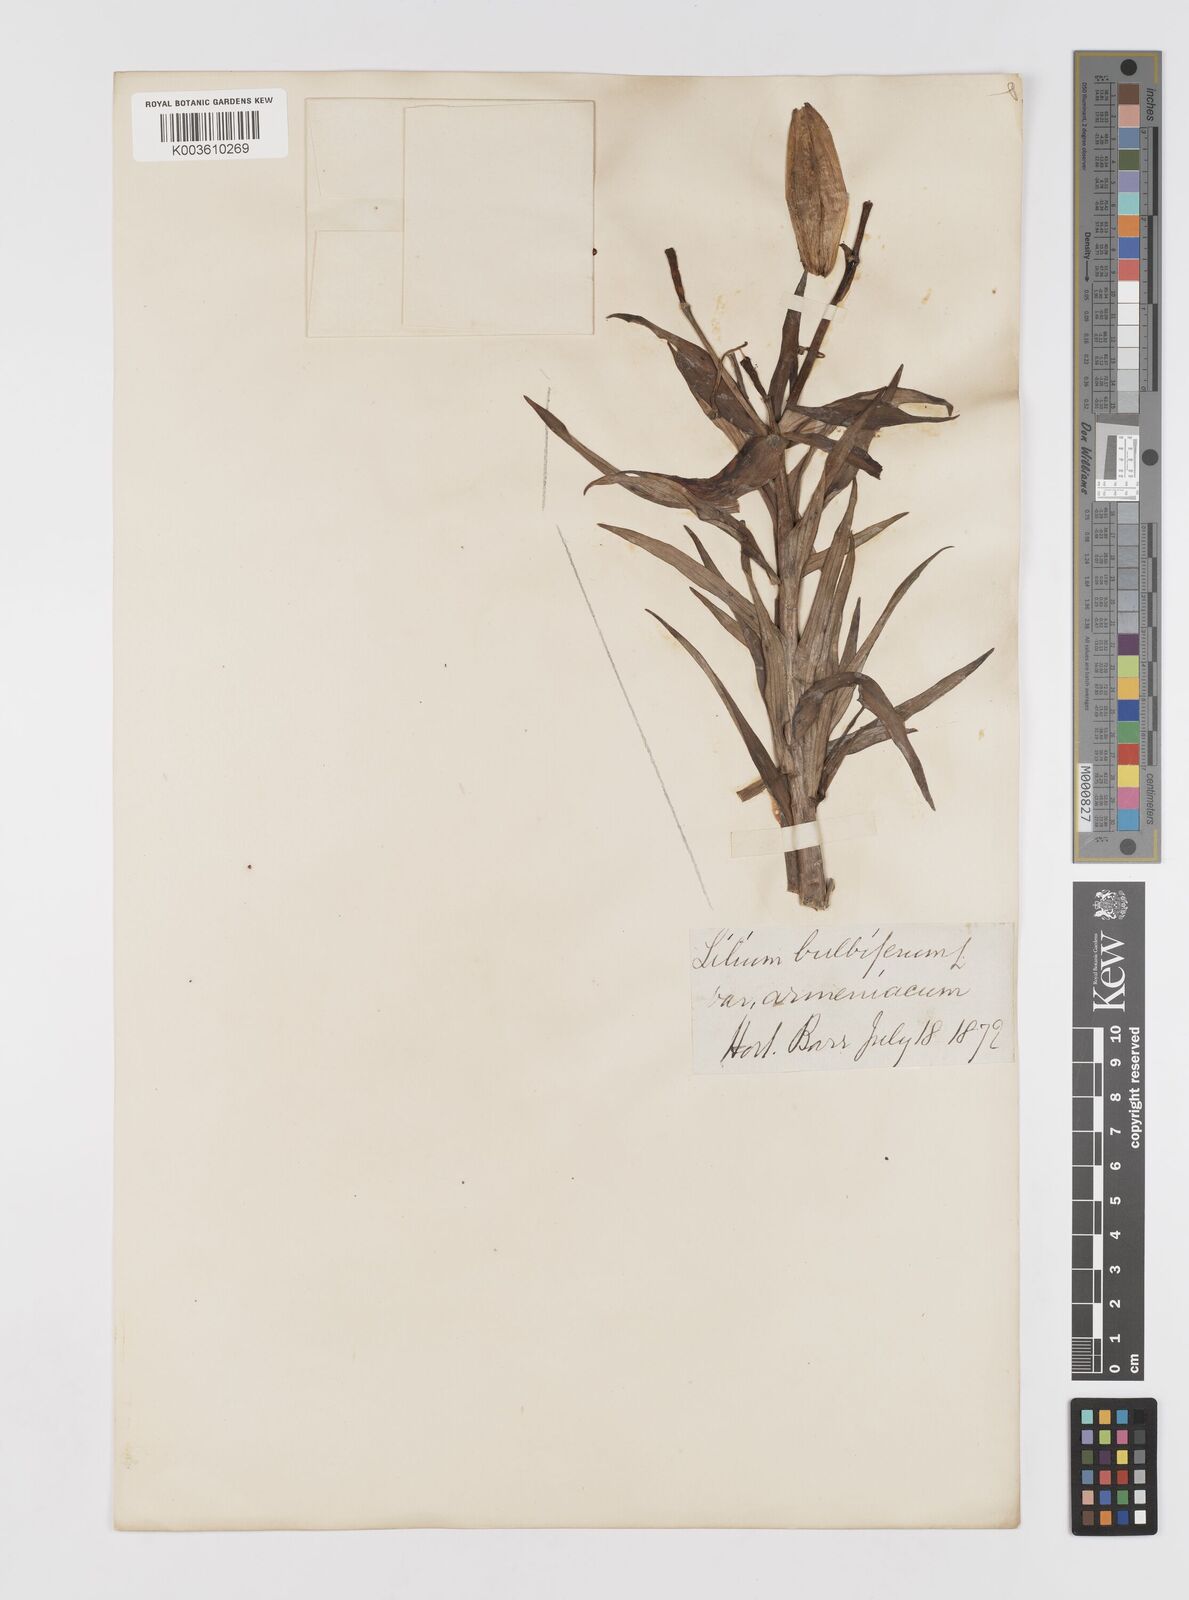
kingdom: Plantae
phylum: Tracheophyta
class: Liliopsida
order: Liliales
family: Liliaceae
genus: Lilium
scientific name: Lilium bulbiferum
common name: Orange lily
